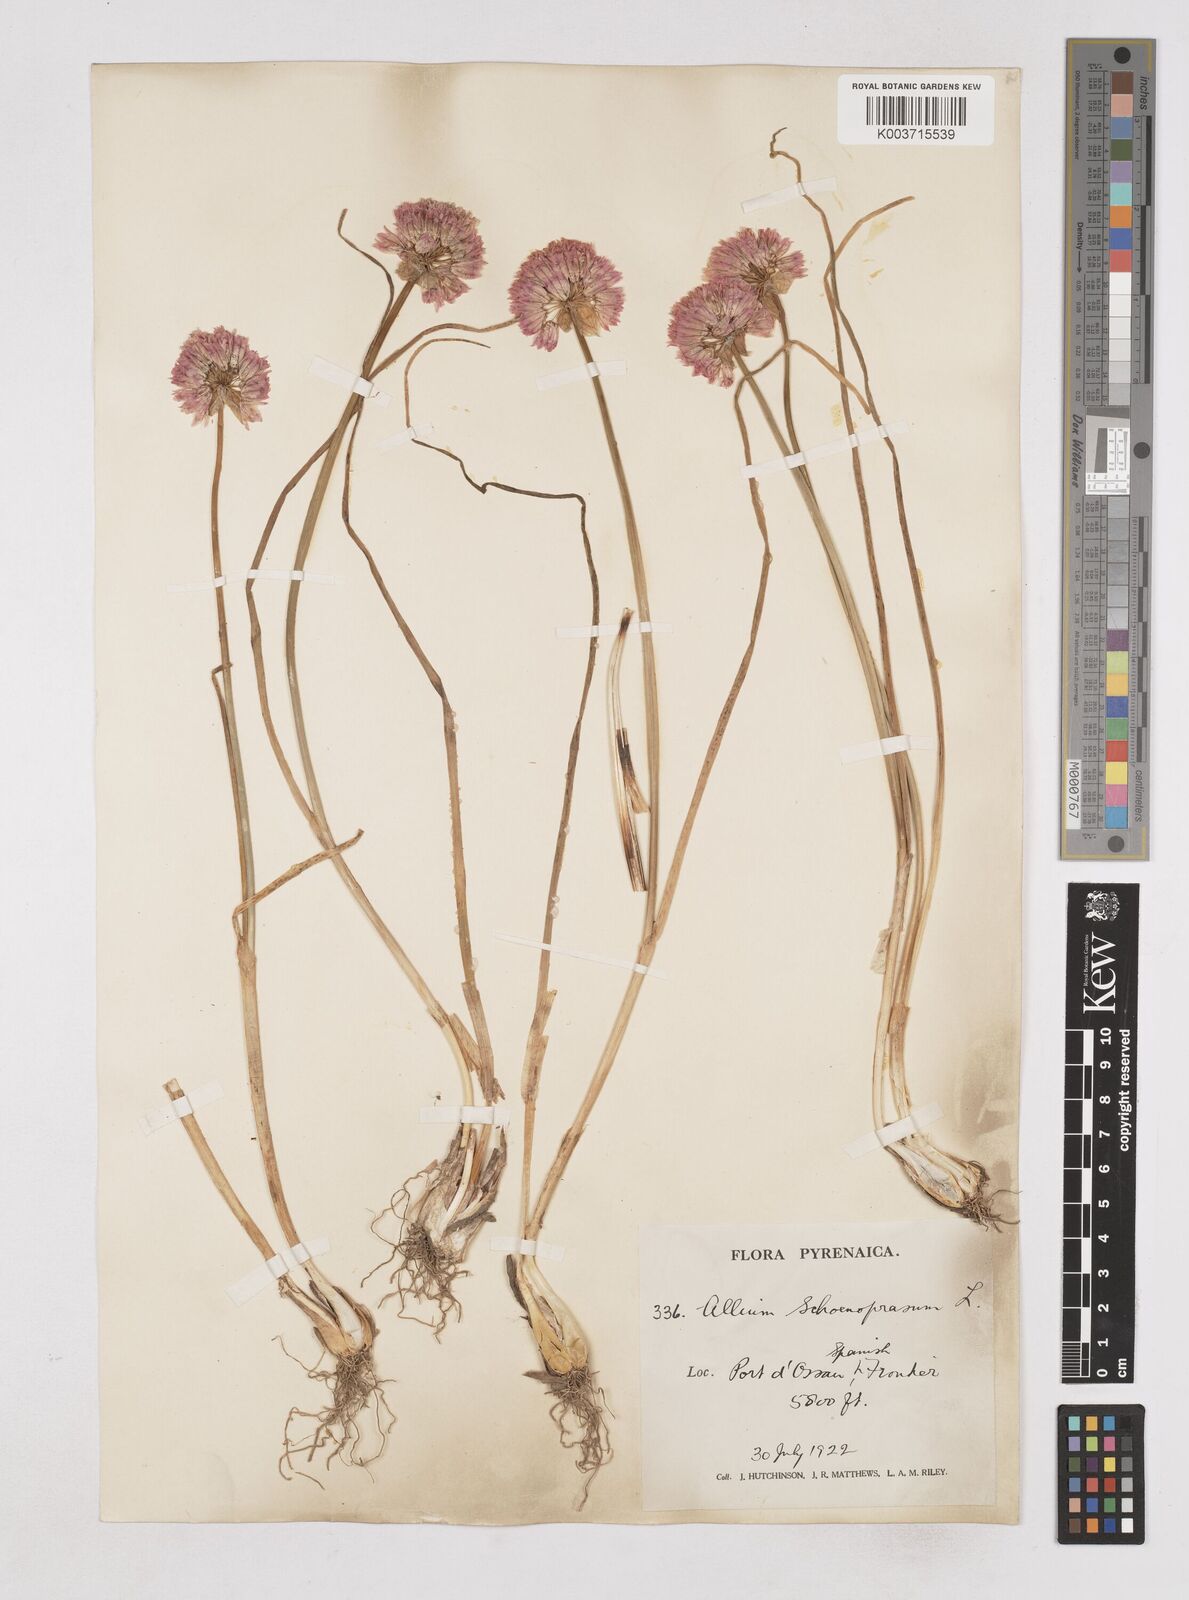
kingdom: Plantae
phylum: Tracheophyta
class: Liliopsida
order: Asparagales
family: Amaryllidaceae
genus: Allium
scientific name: Allium schoenoprasum
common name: Chives
